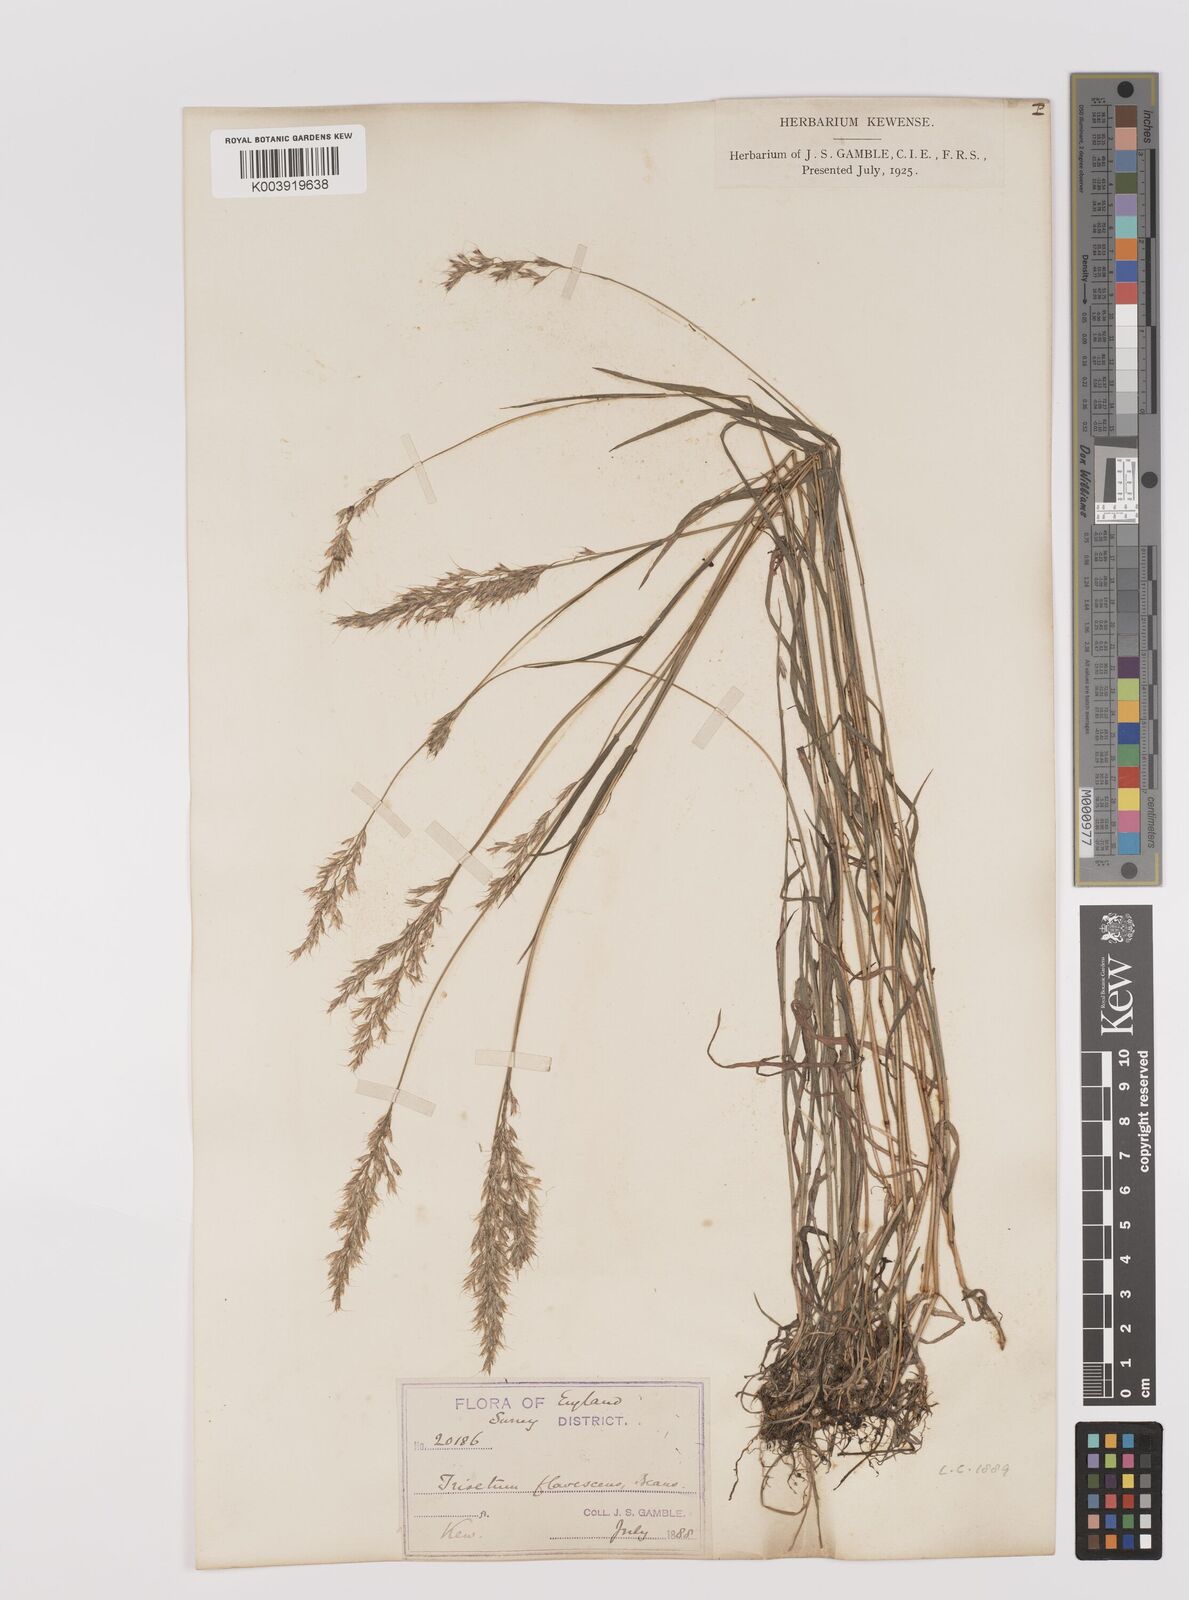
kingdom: Plantae
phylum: Tracheophyta
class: Liliopsida
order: Poales
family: Poaceae
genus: Trisetum
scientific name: Trisetum flavescens
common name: Yellow oat-grass
